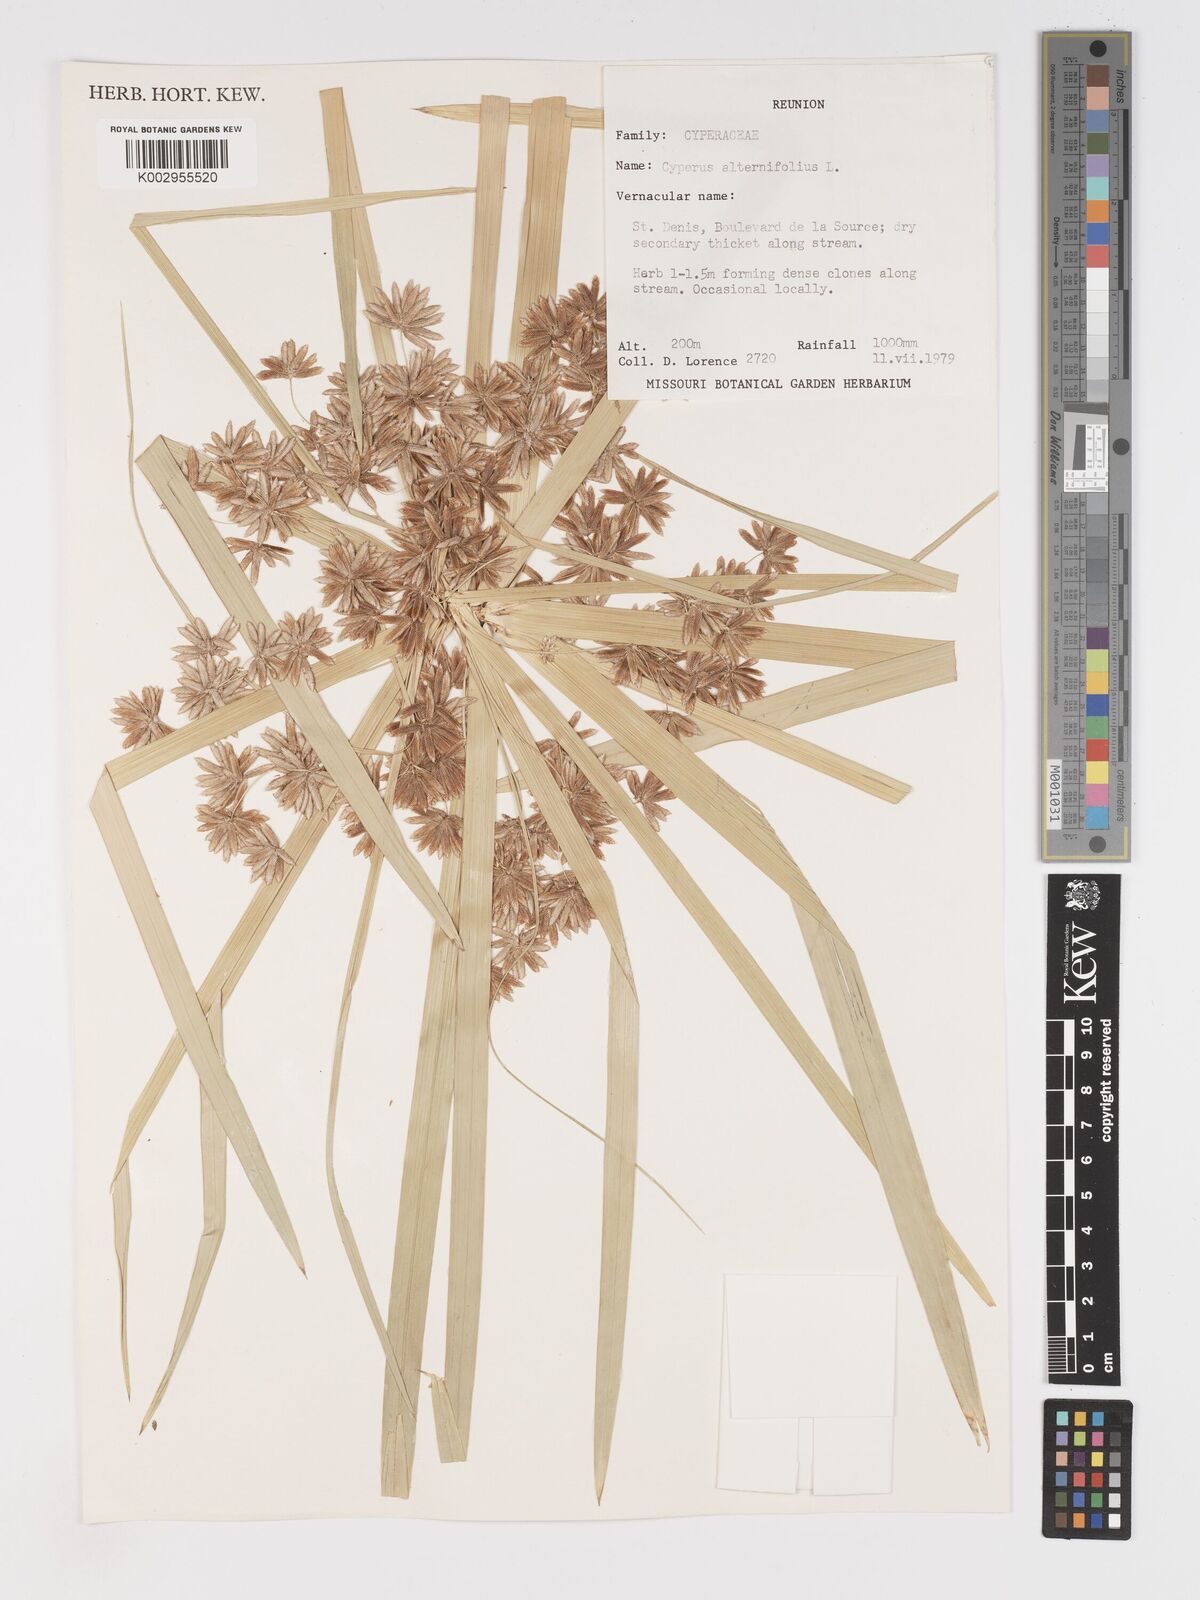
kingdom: Plantae
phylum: Tracheophyta
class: Liliopsida
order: Poales
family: Cyperaceae
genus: Cyperus
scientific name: Cyperus alternifolius
